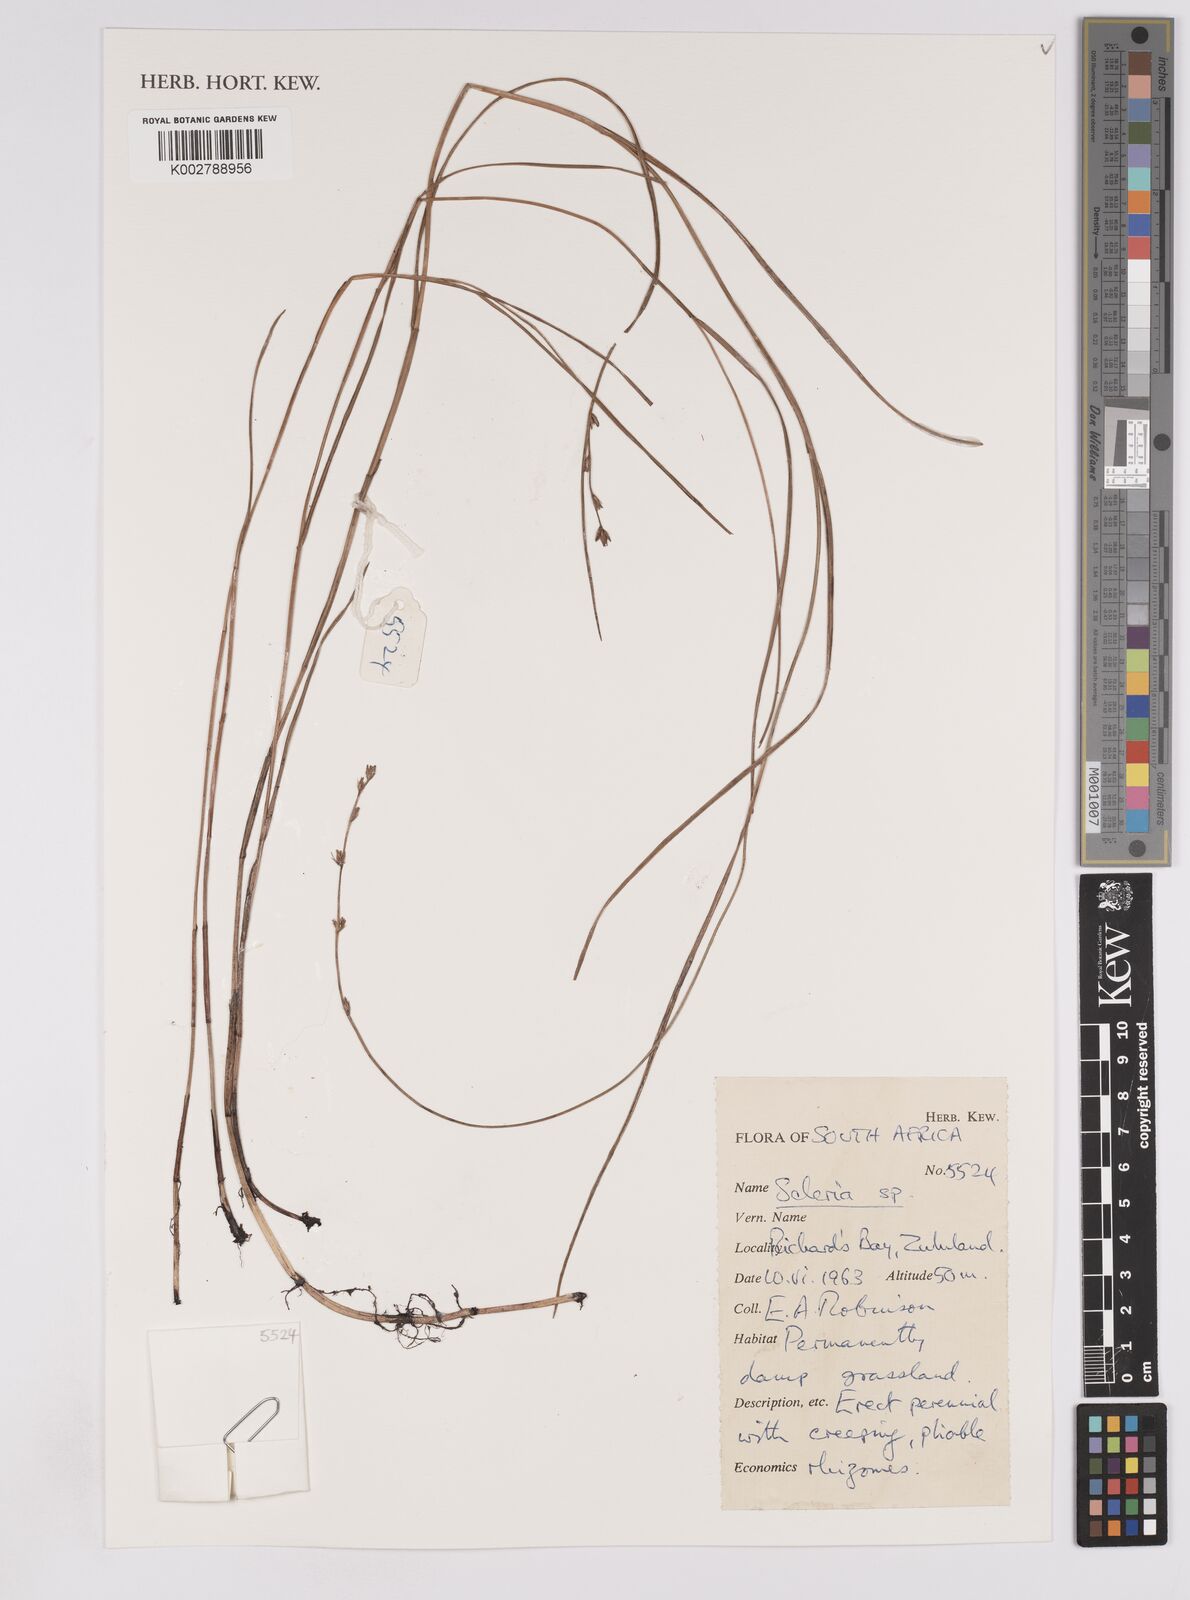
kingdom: Plantae
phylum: Tracheophyta
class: Liliopsida
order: Poales
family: Cyperaceae
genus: Scleria
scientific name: Scleria
